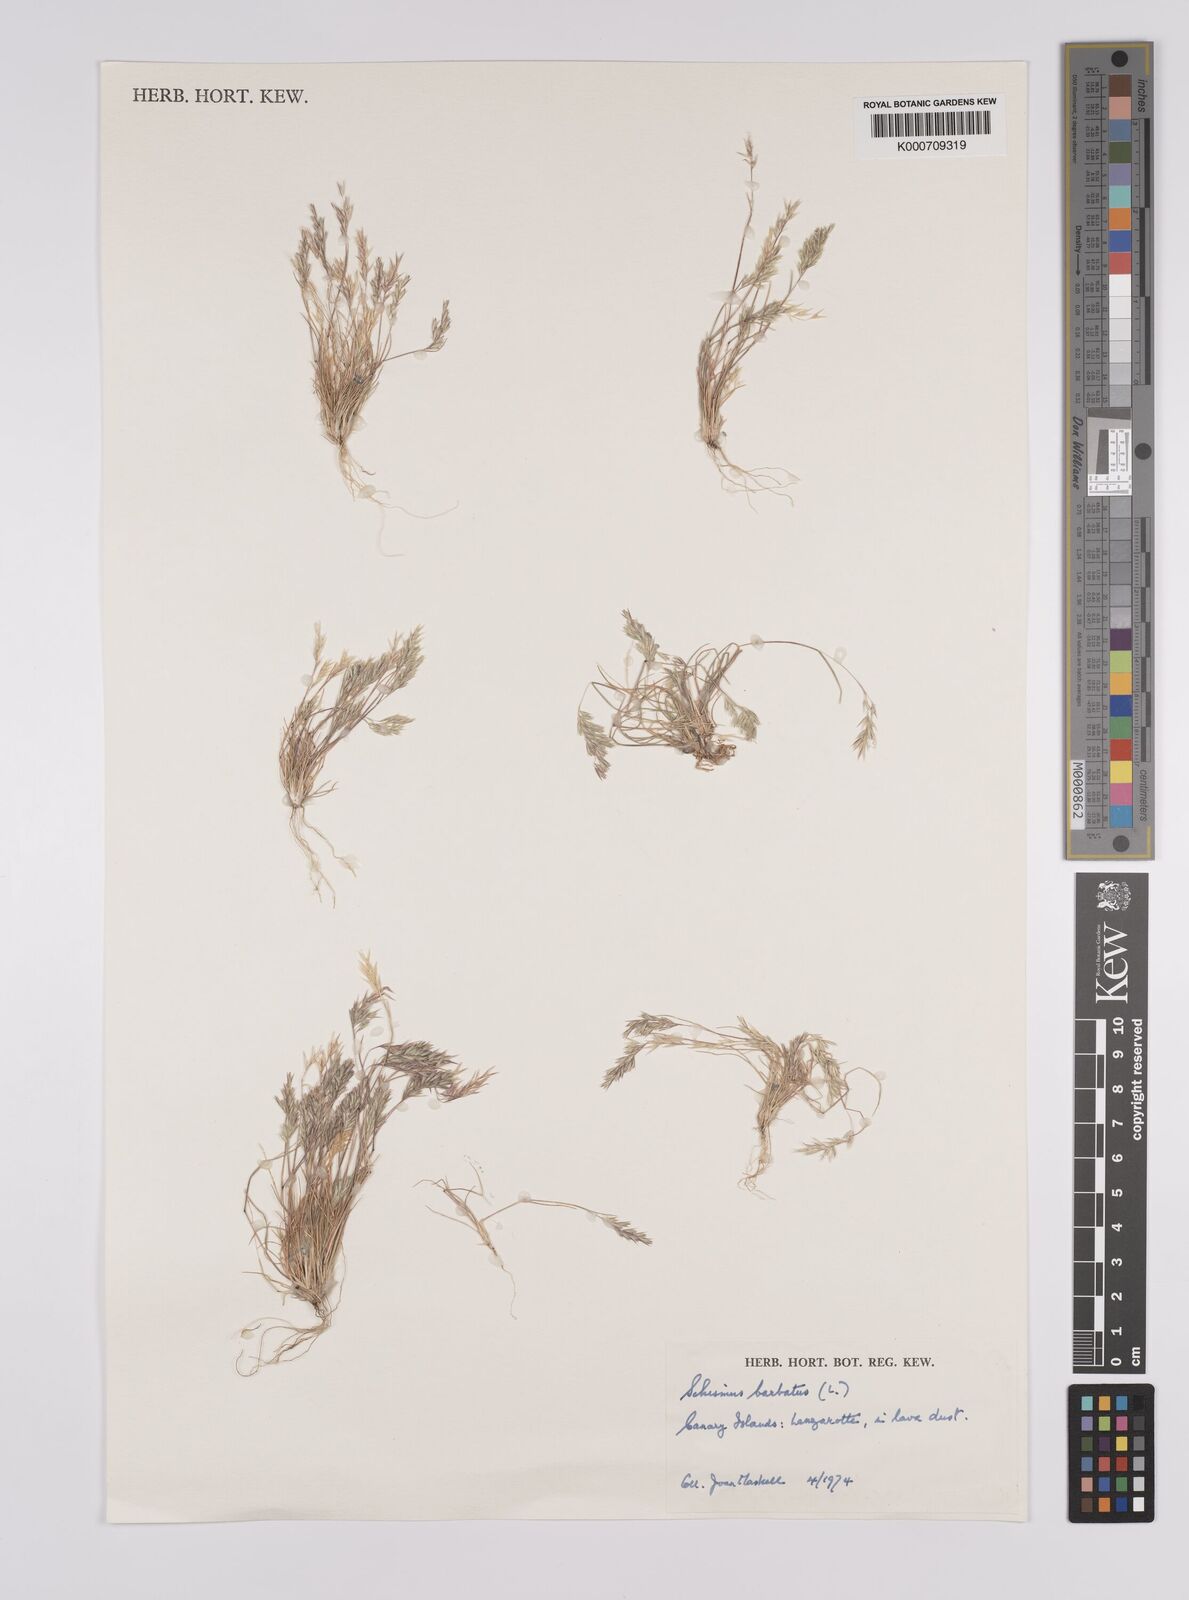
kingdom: Plantae
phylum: Tracheophyta
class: Liliopsida
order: Poales
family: Poaceae
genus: Schismus
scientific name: Schismus barbatus
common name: Kelch-grass
